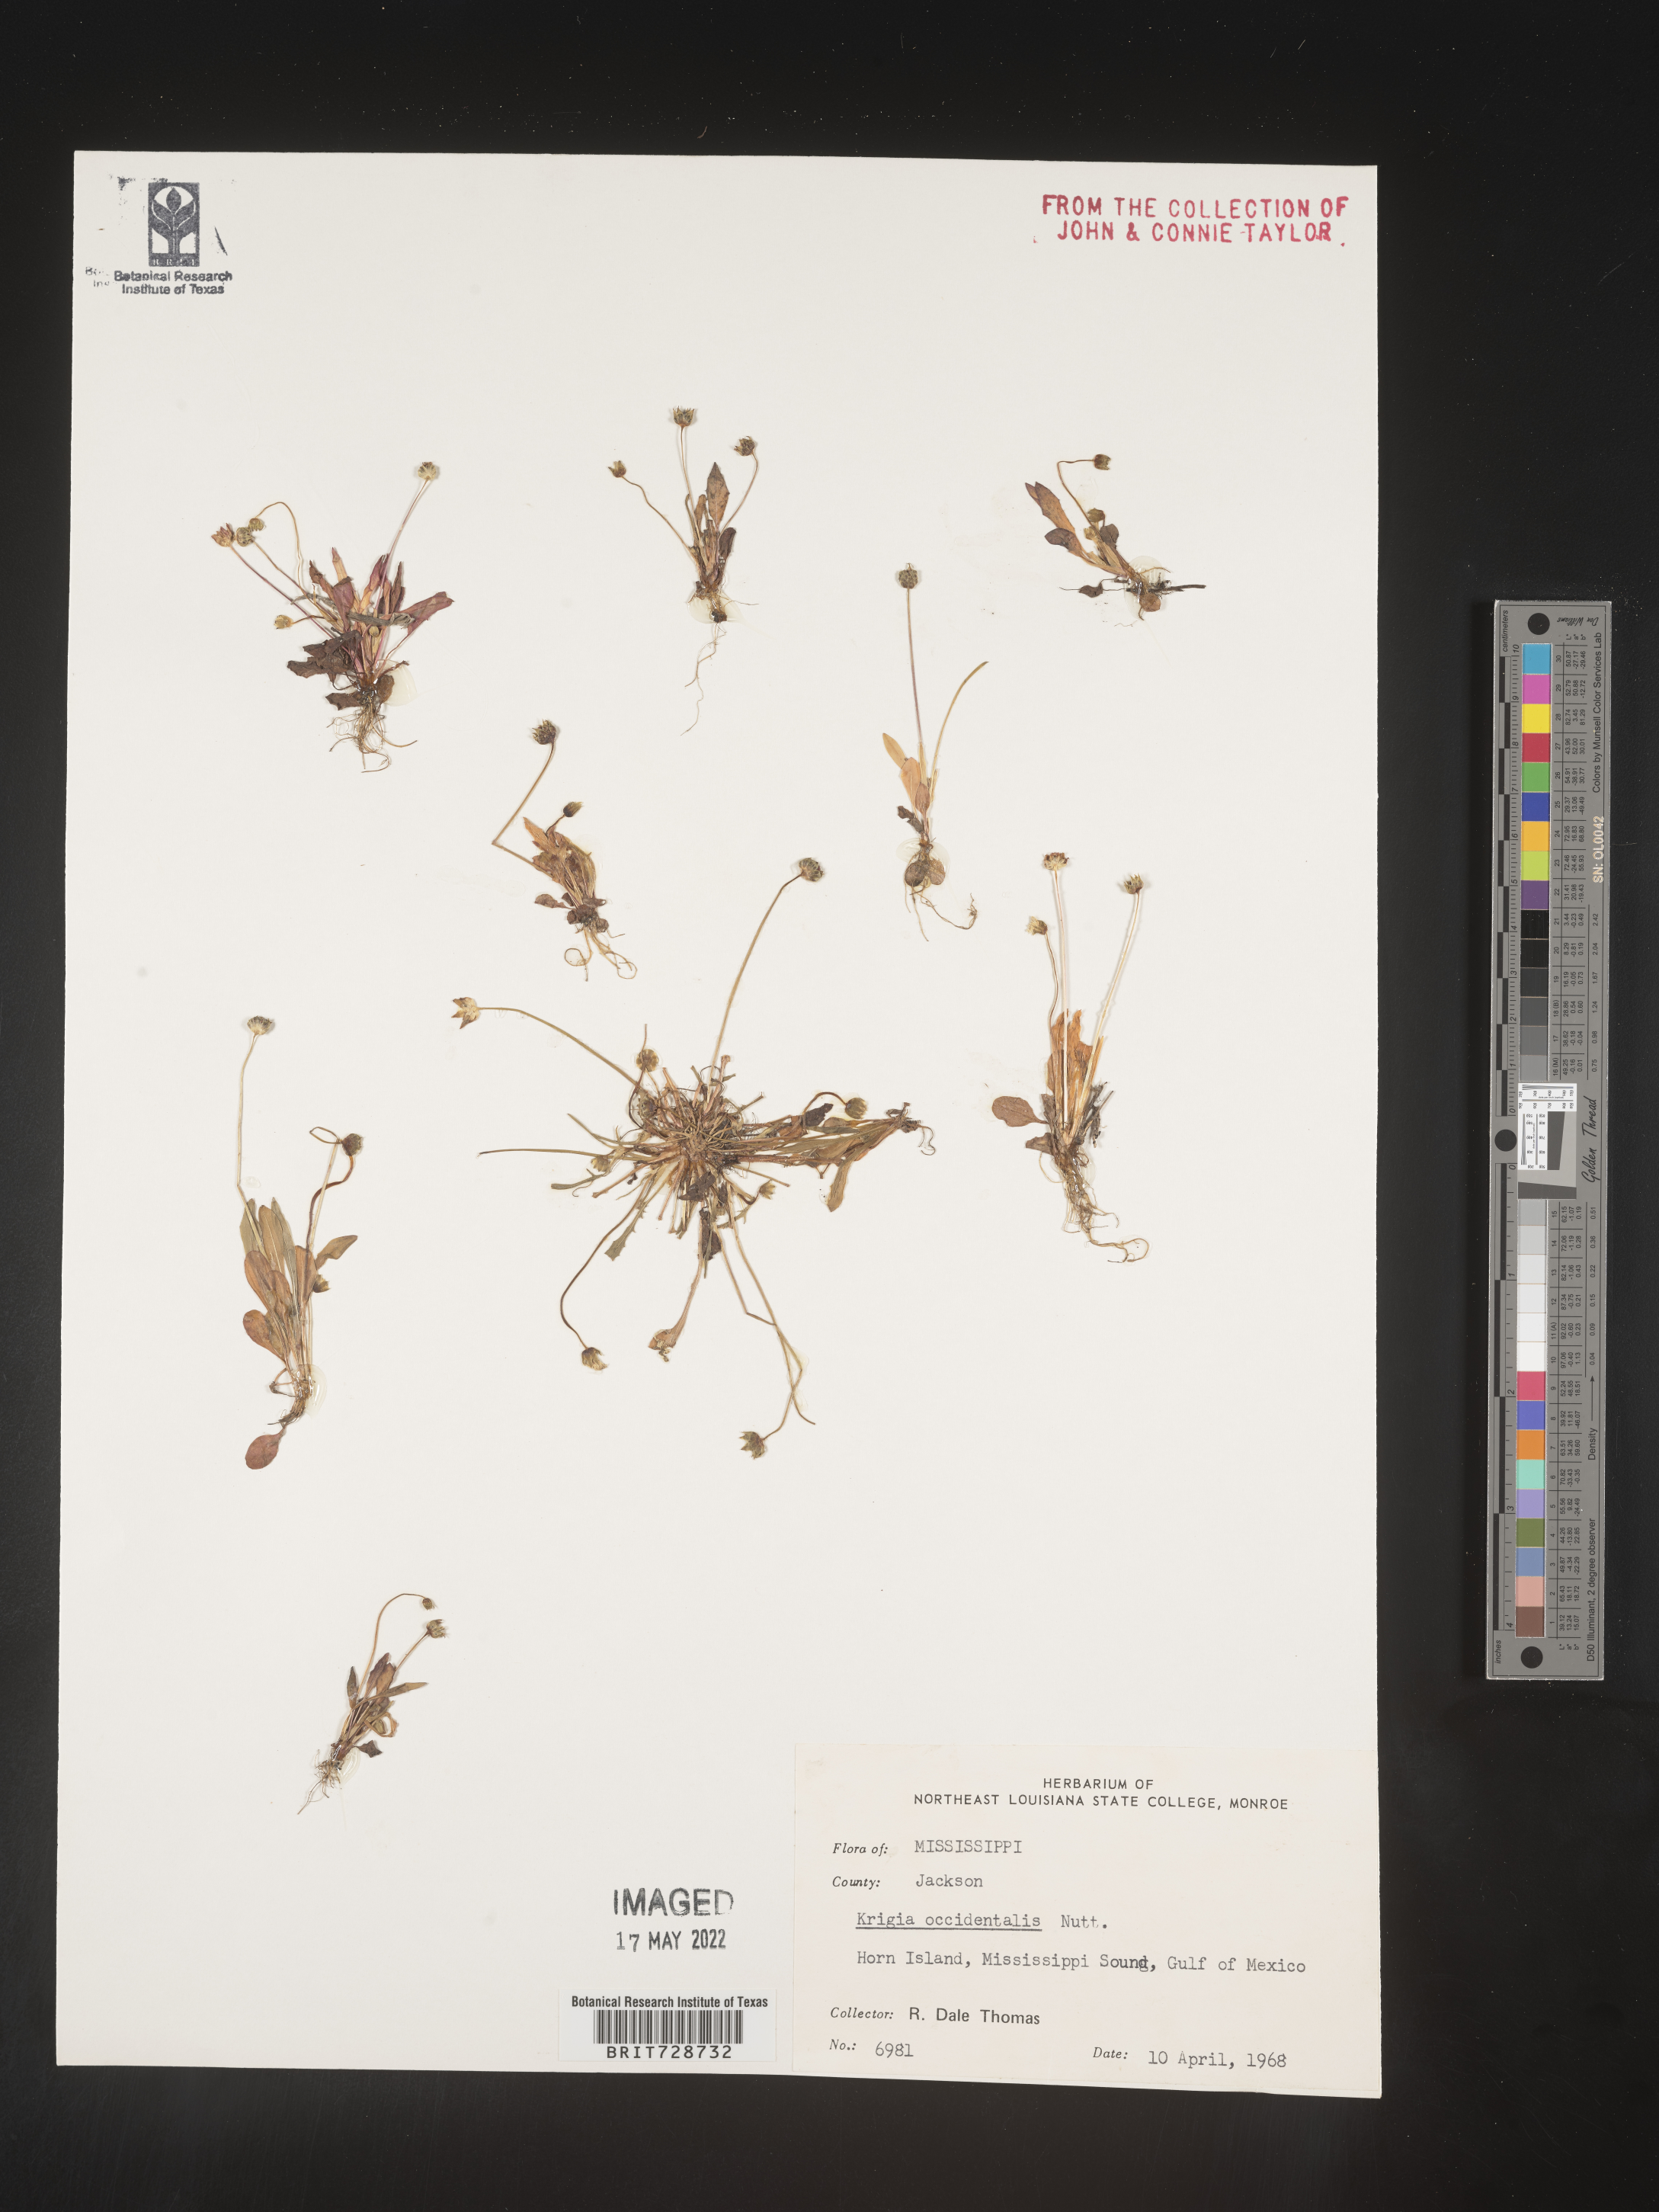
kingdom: Plantae
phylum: Tracheophyta
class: Magnoliopsida
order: Asterales
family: Asteraceae
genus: Krigia
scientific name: Krigia occidentalis
